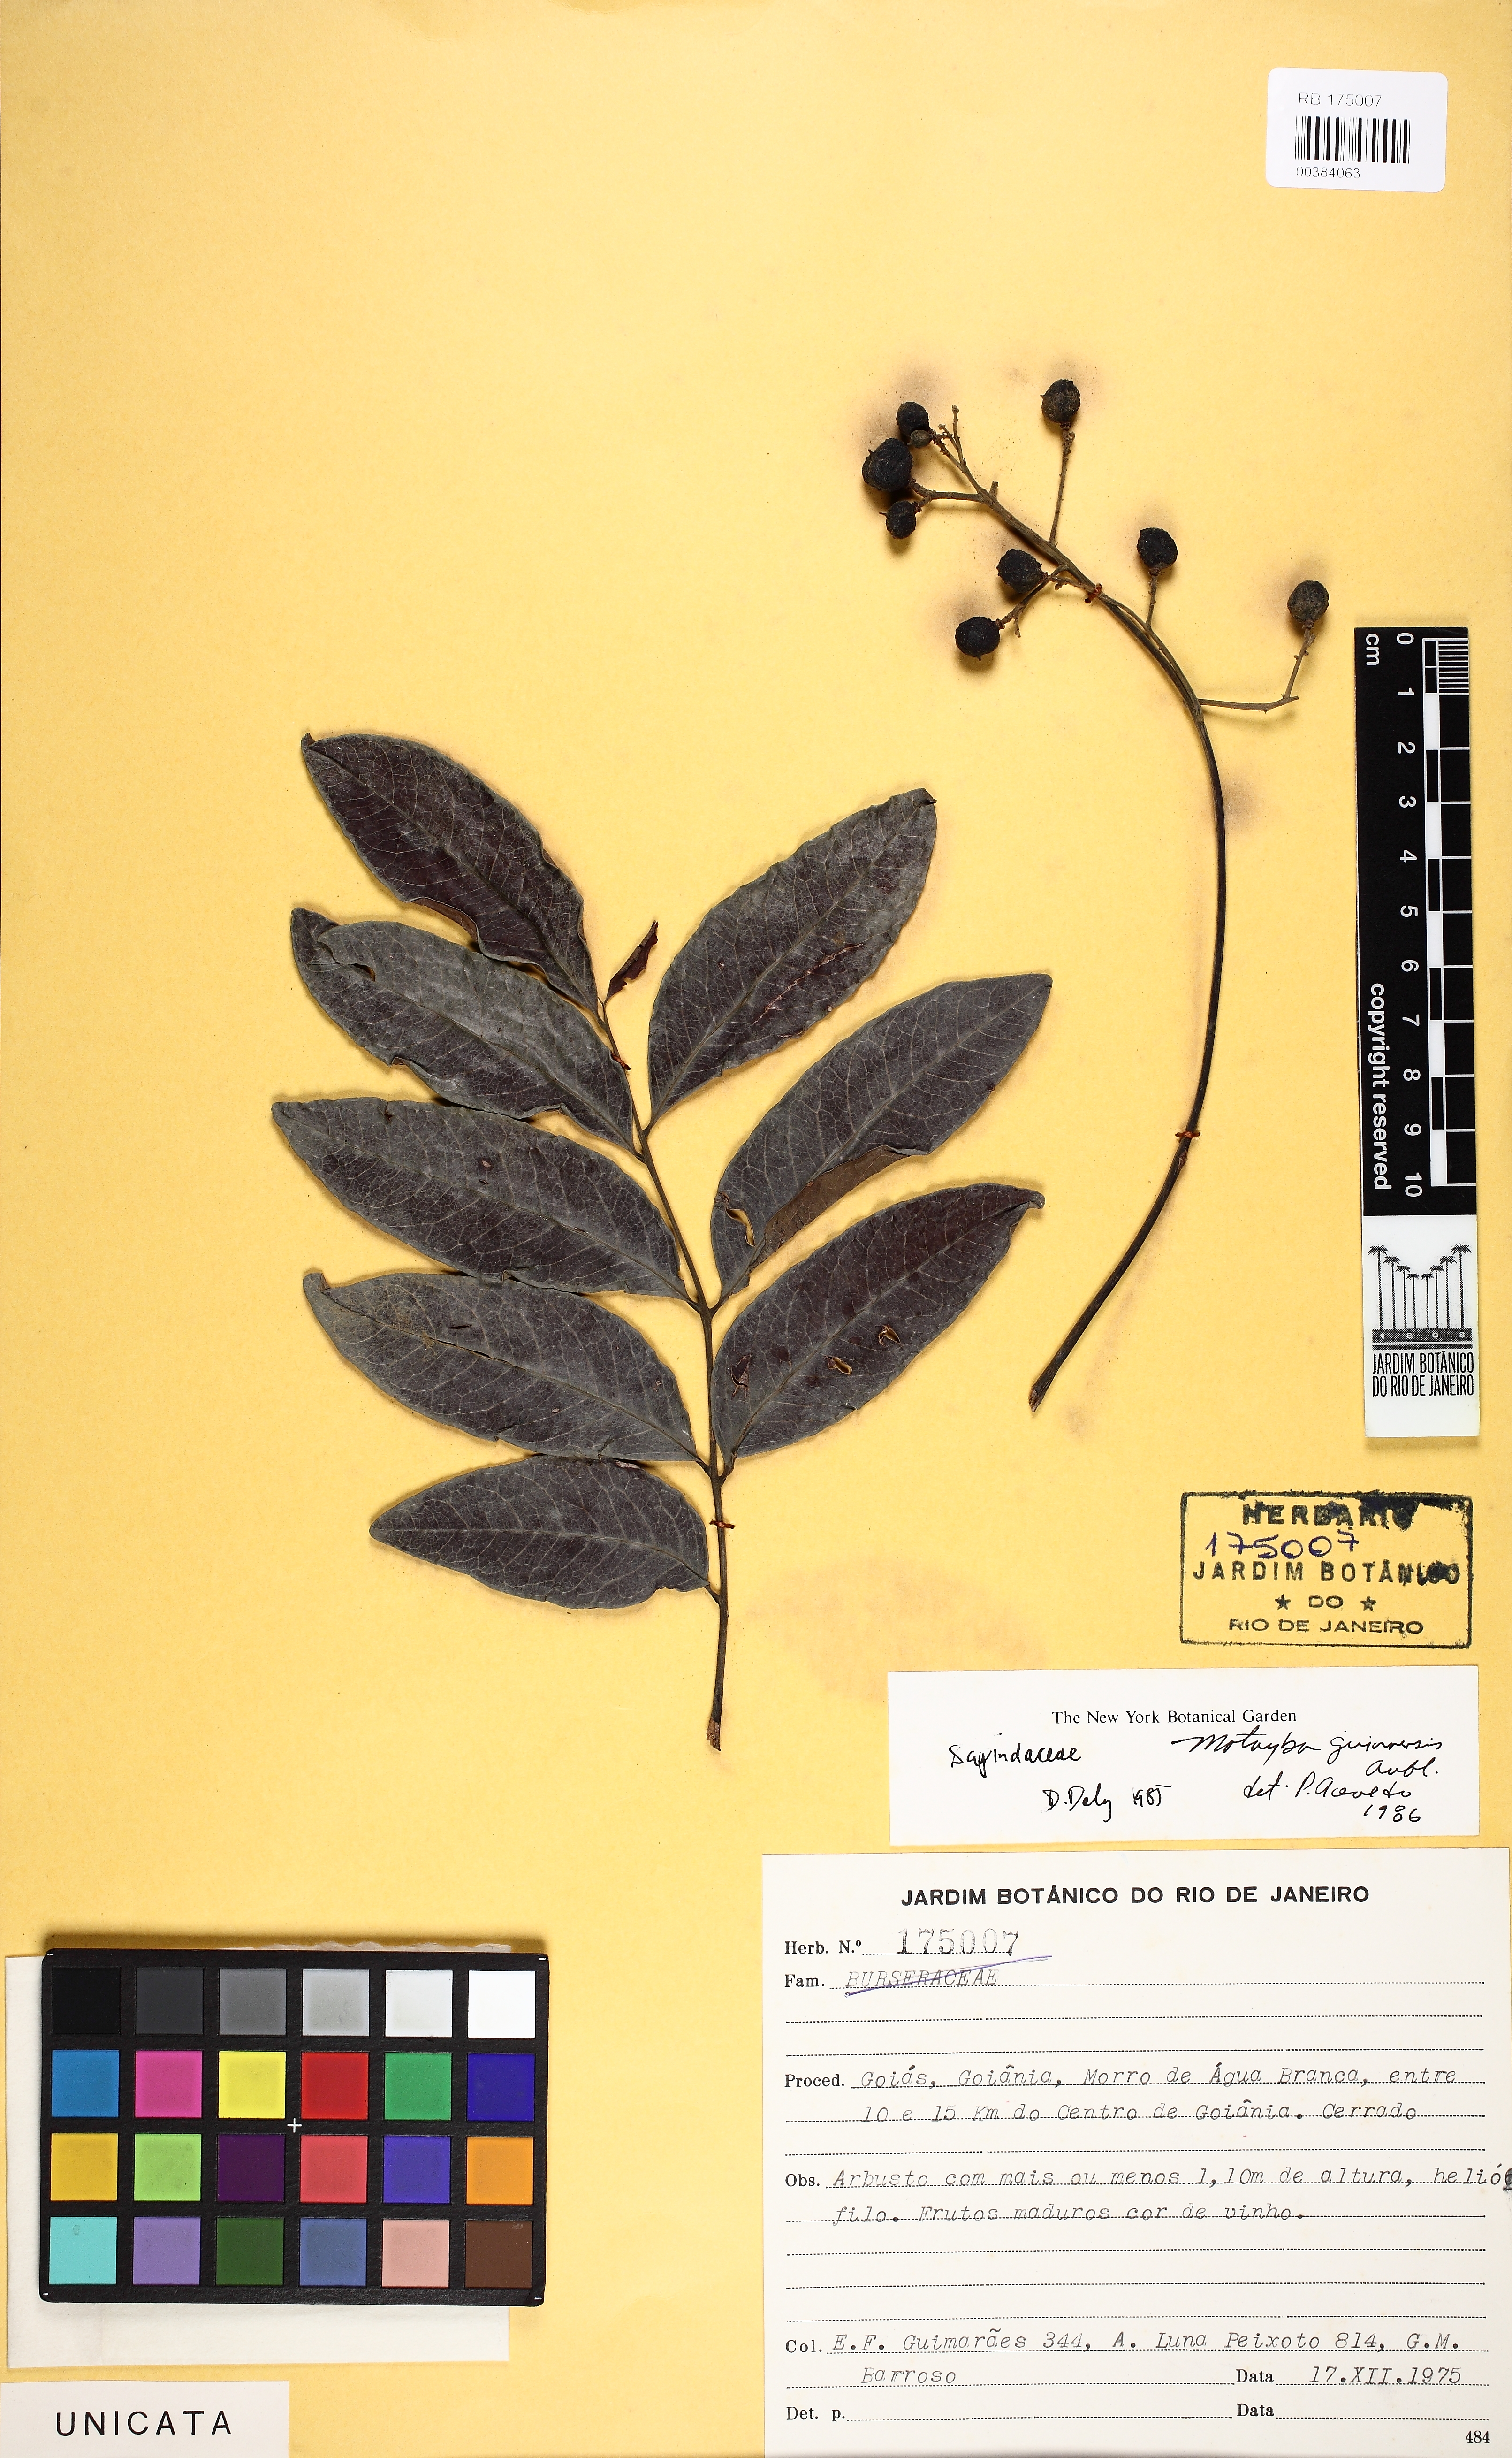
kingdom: Plantae
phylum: Tracheophyta
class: Magnoliopsida
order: Sapindales
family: Sapindaceae
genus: Matayba
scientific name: Matayba guianensis
